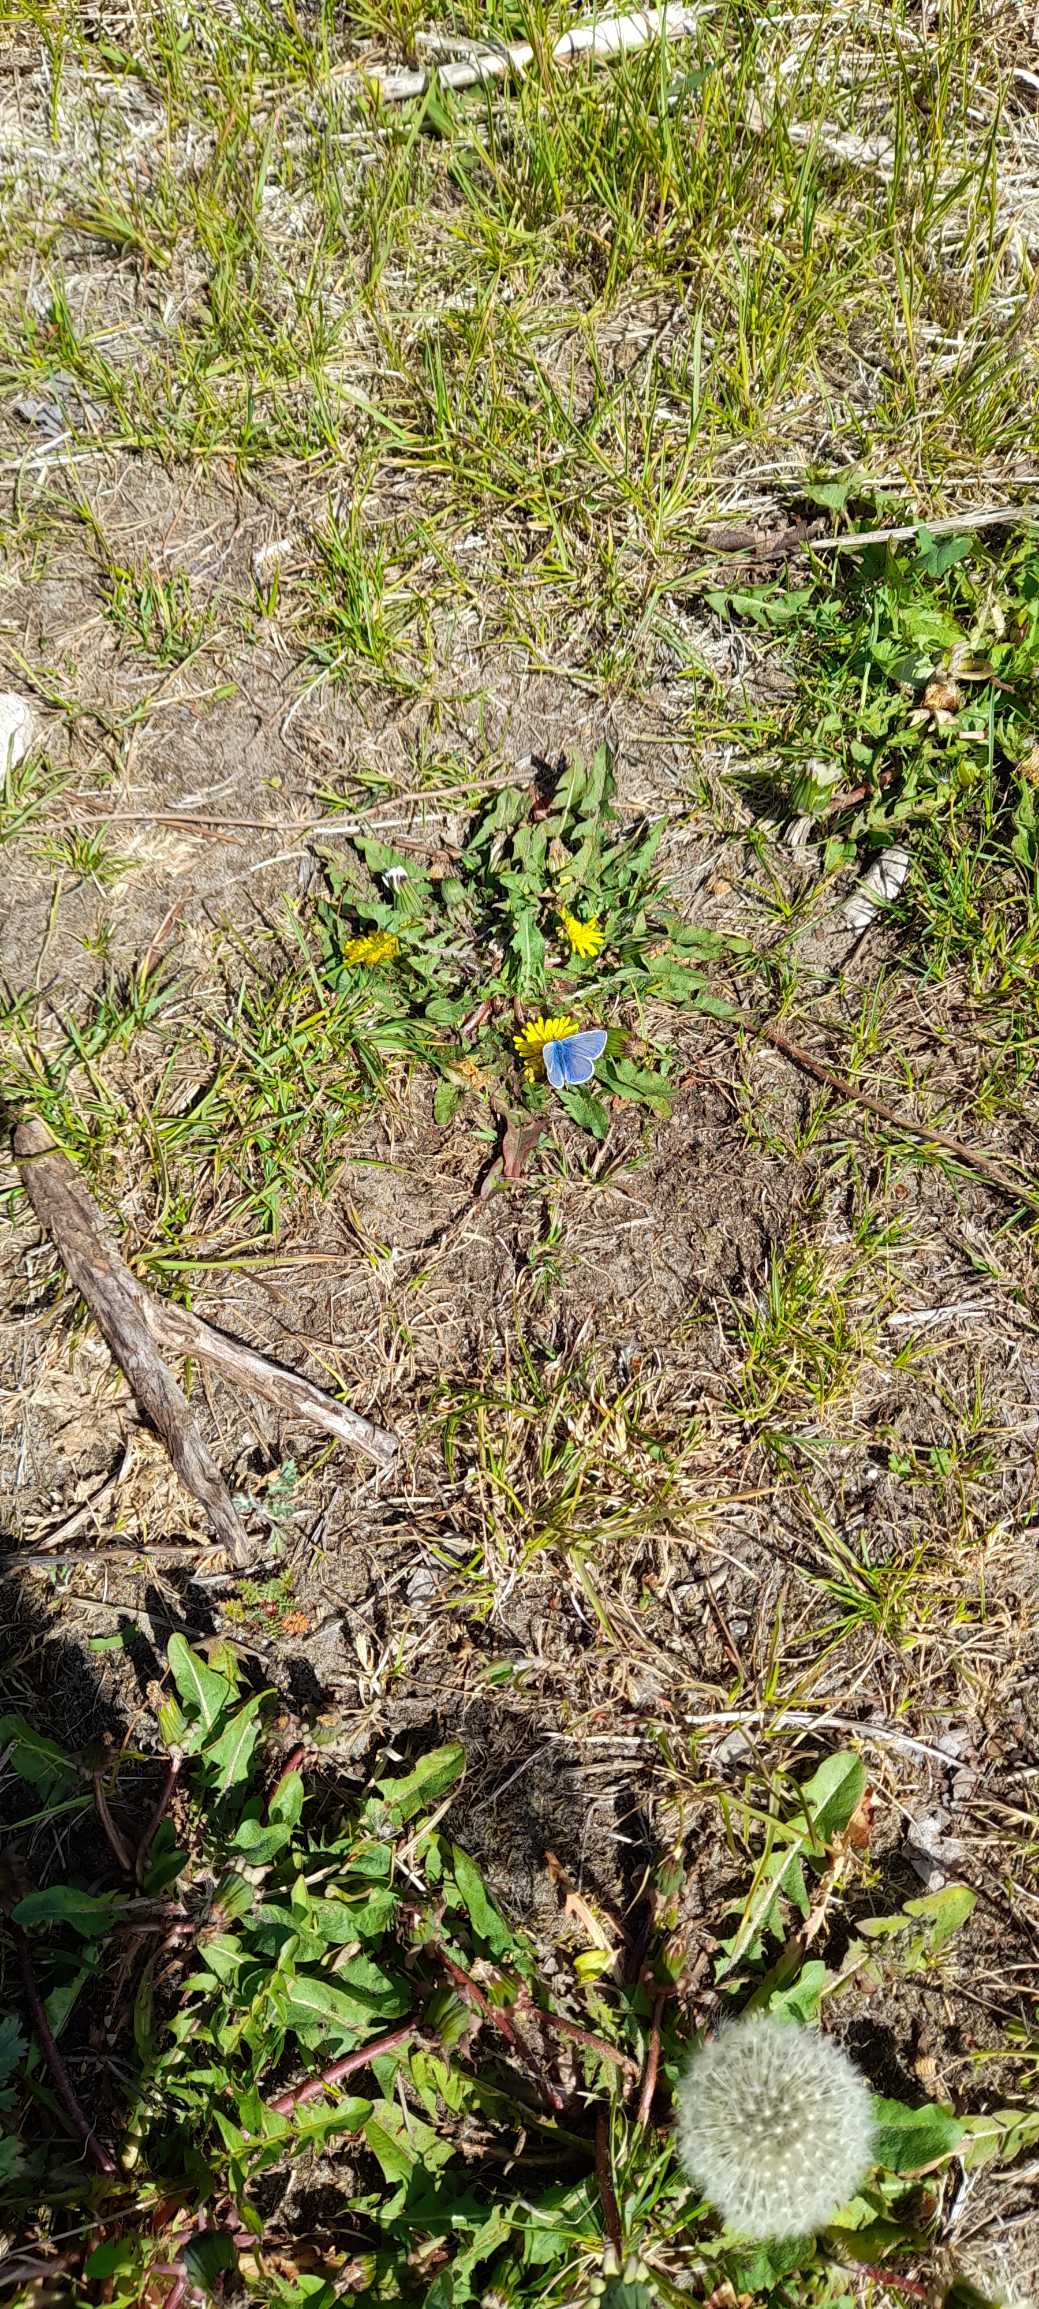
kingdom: Animalia
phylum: Arthropoda
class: Insecta
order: Lepidoptera
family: Lycaenidae
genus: Polyommatus
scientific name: Polyommatus icarus
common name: Almindelig blåfugl
